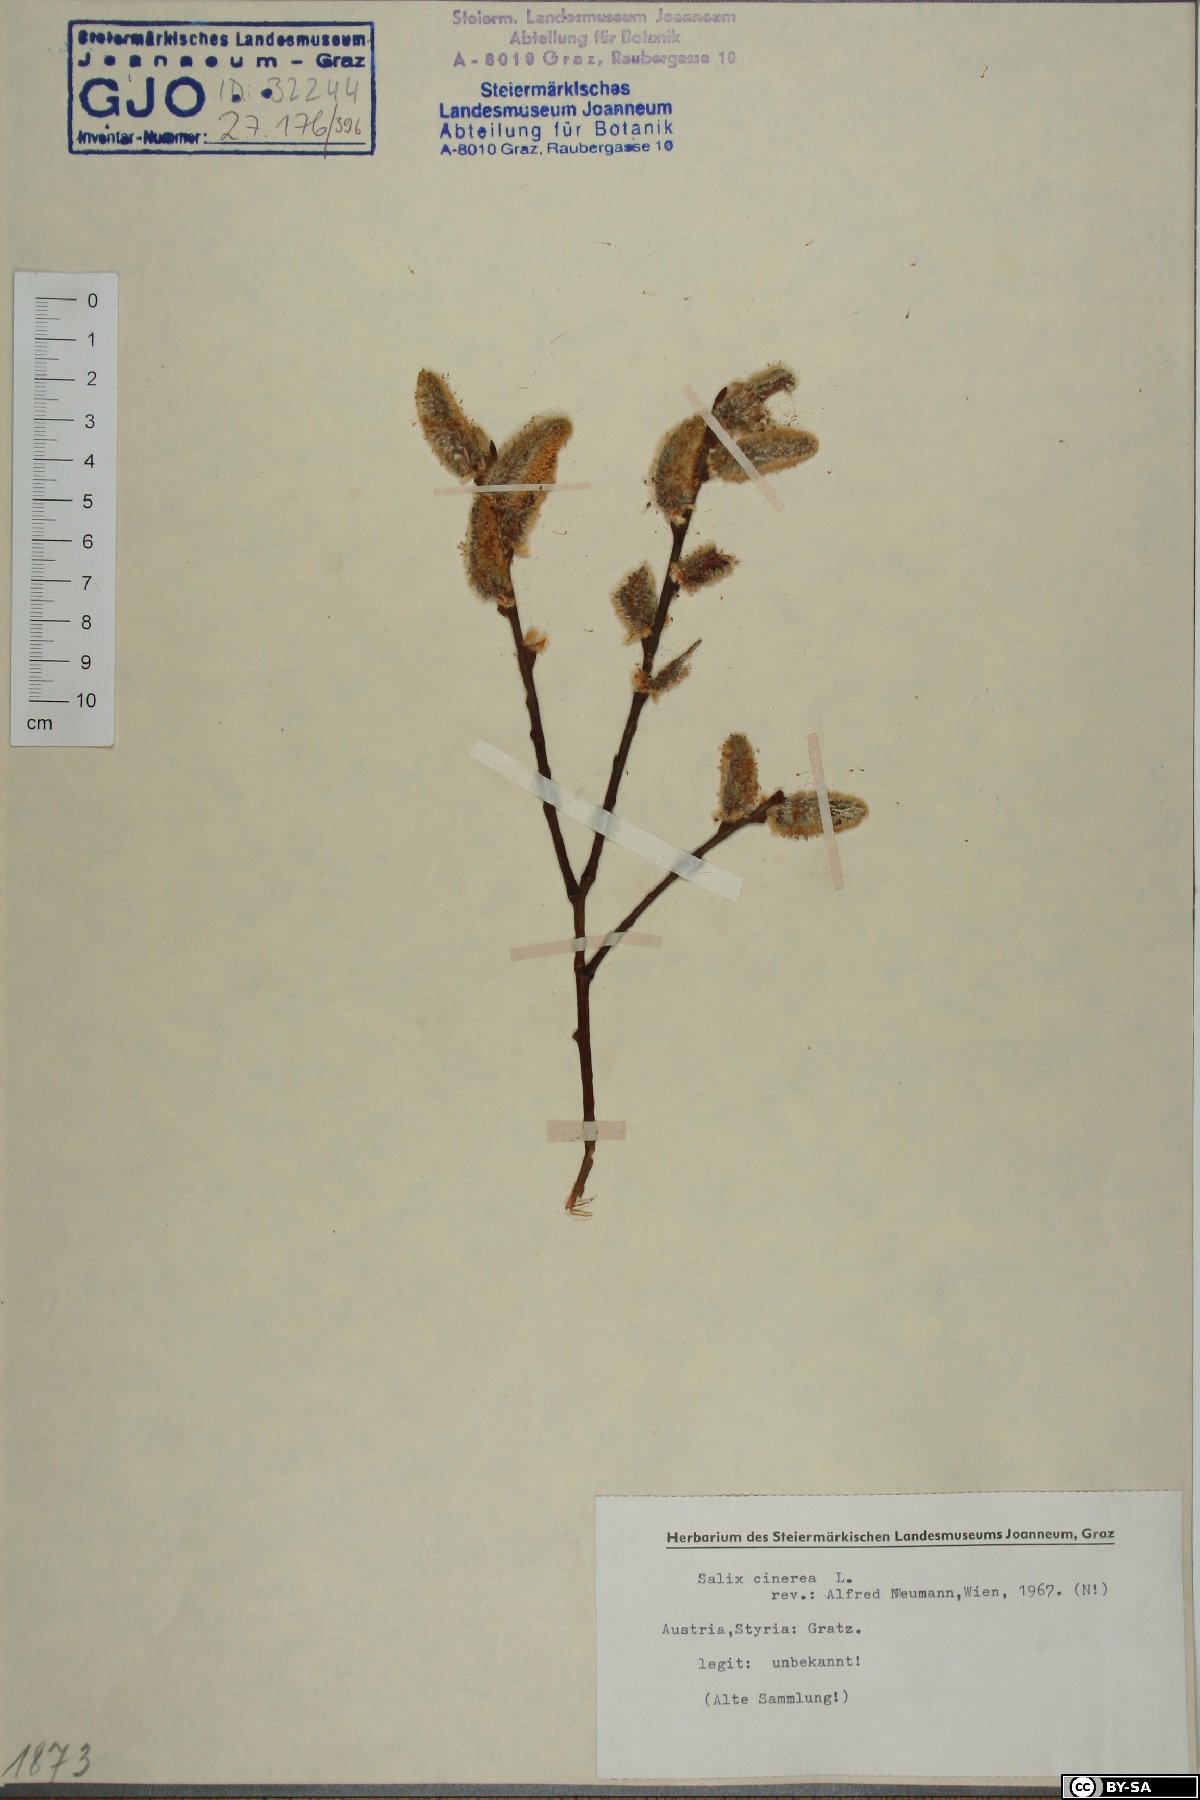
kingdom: Plantae
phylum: Tracheophyta
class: Magnoliopsida
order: Malpighiales
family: Salicaceae
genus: Salix
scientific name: Salix cinerea
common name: Common sallow
